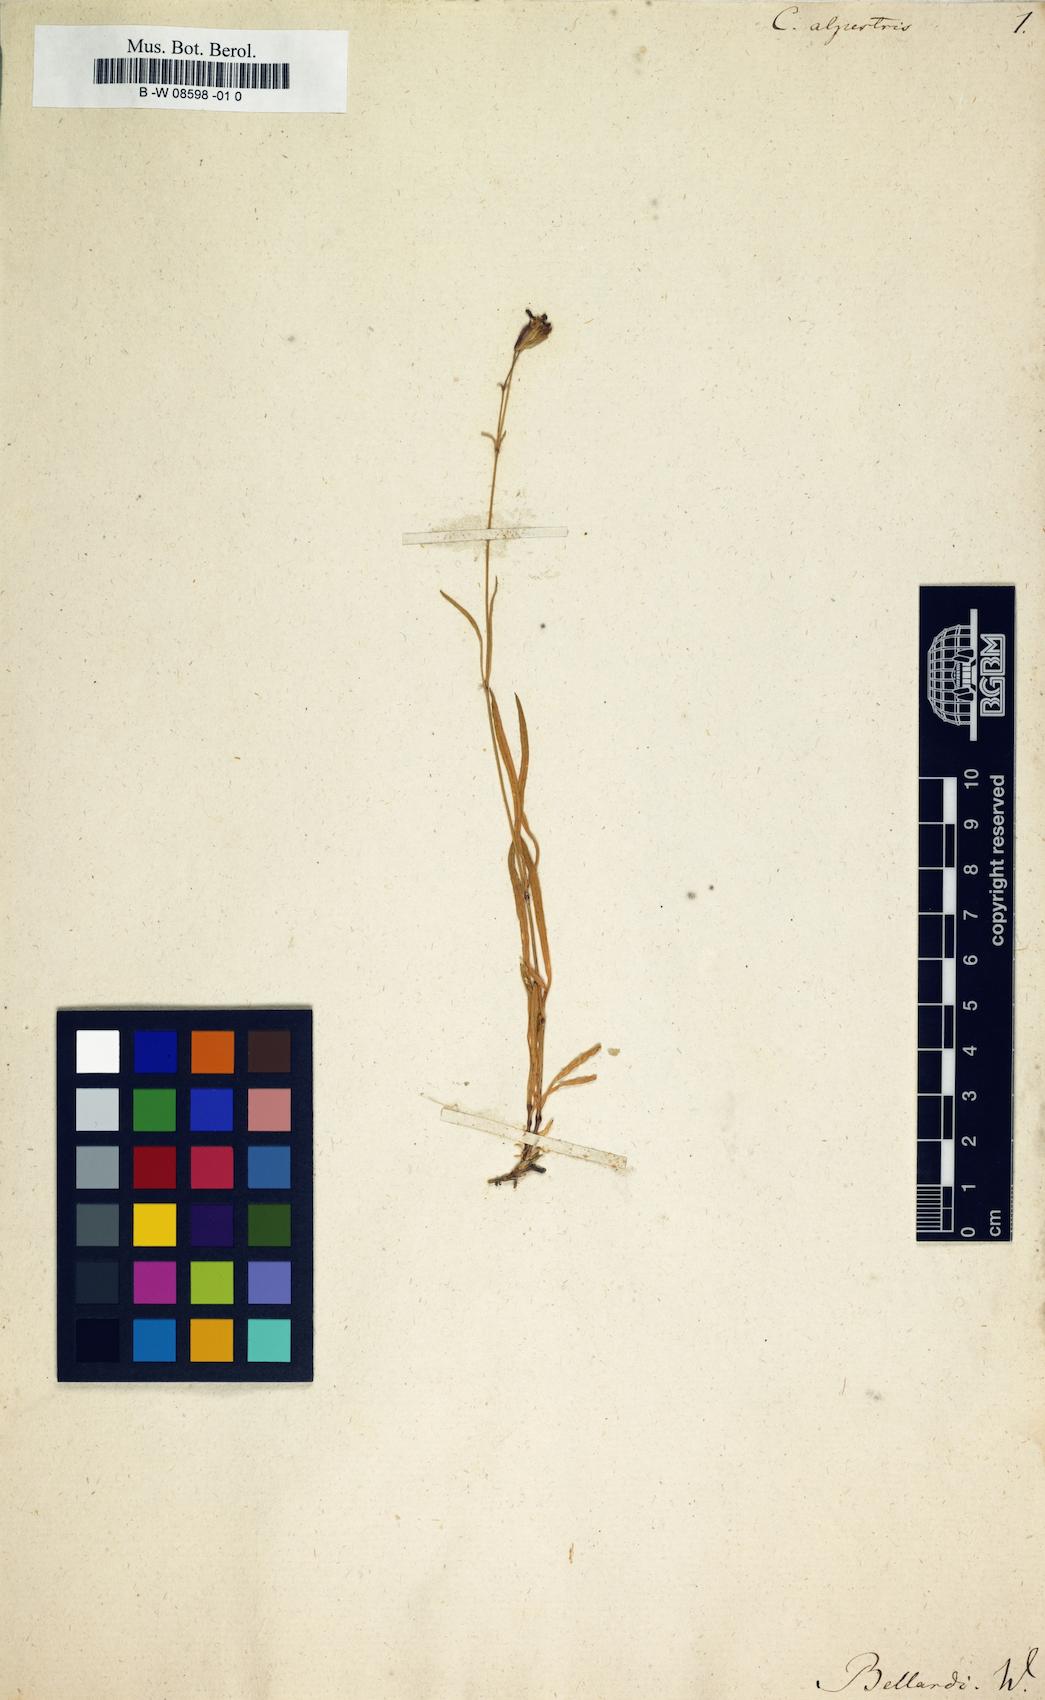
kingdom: Plantae
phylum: Tracheophyta
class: Magnoliopsida
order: Caryophyllales
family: Caryophyllaceae
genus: Silene
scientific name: Silene campanula
